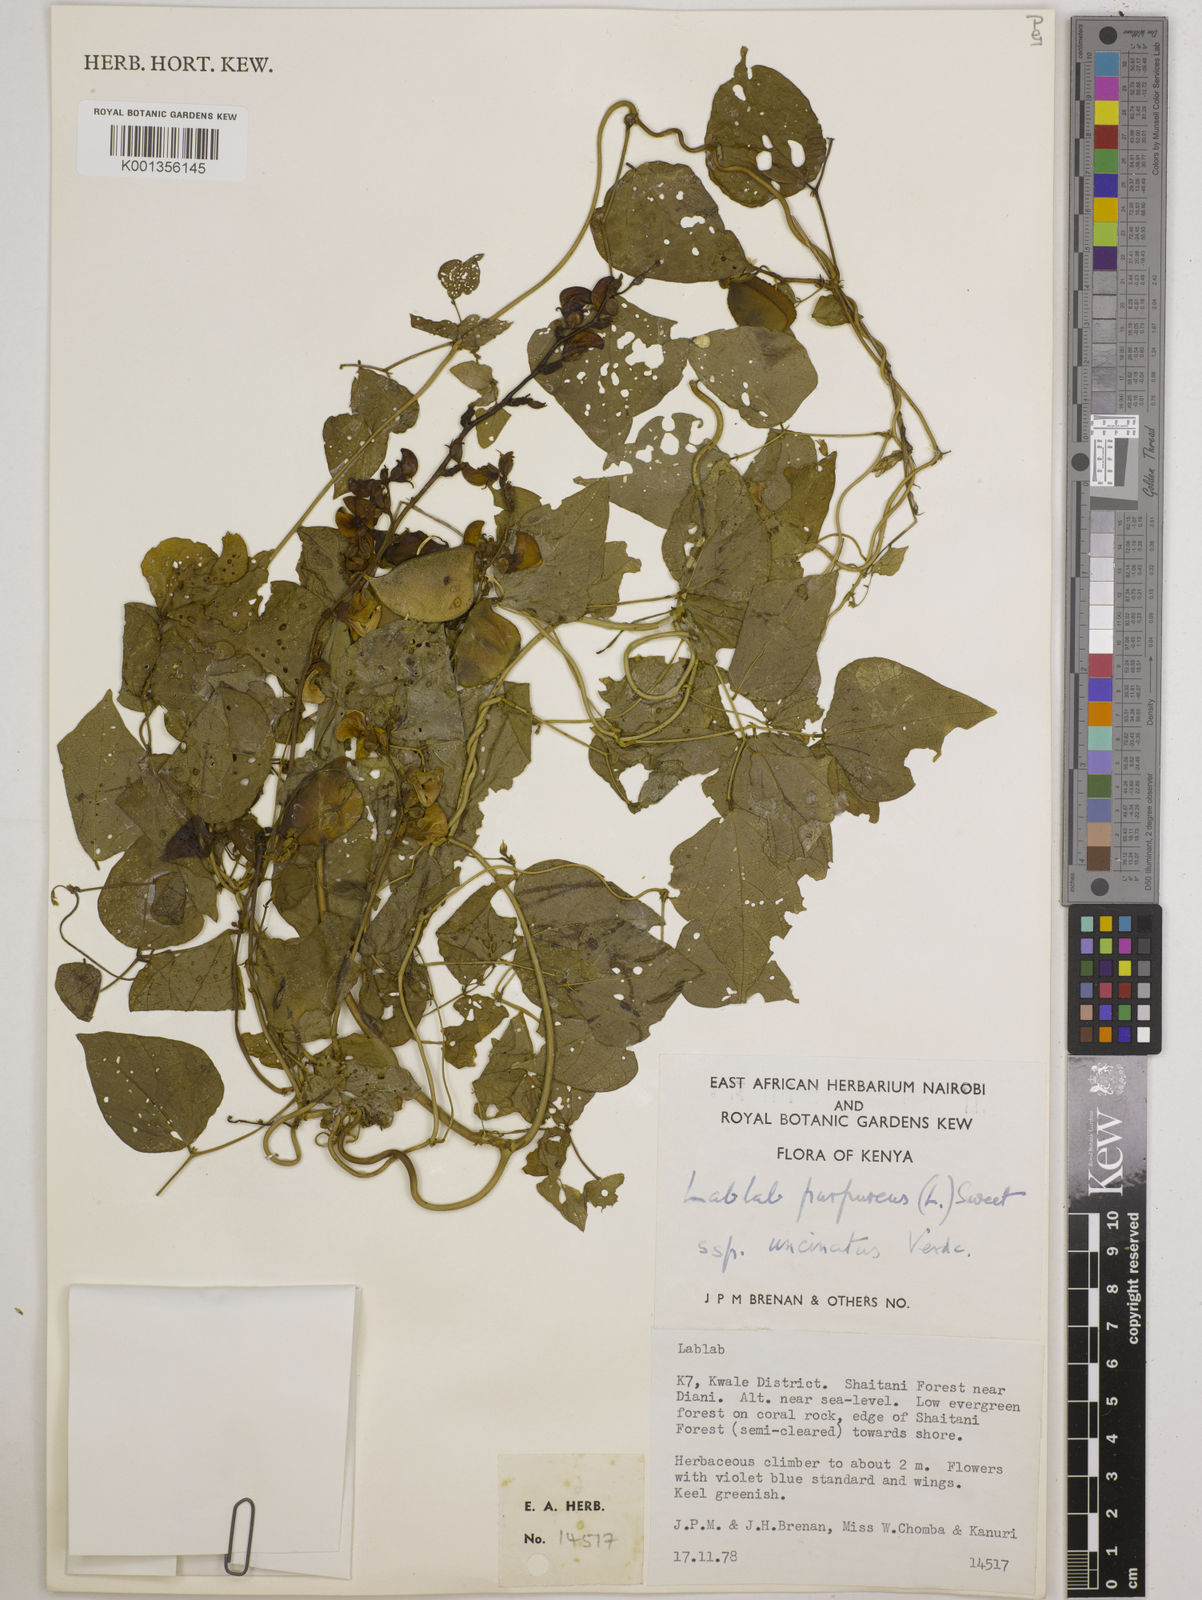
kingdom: Plantae
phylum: Tracheophyta
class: Magnoliopsida
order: Fabales
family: Fabaceae
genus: Lablab
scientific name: Lablab purpureus
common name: Lablab-bean
